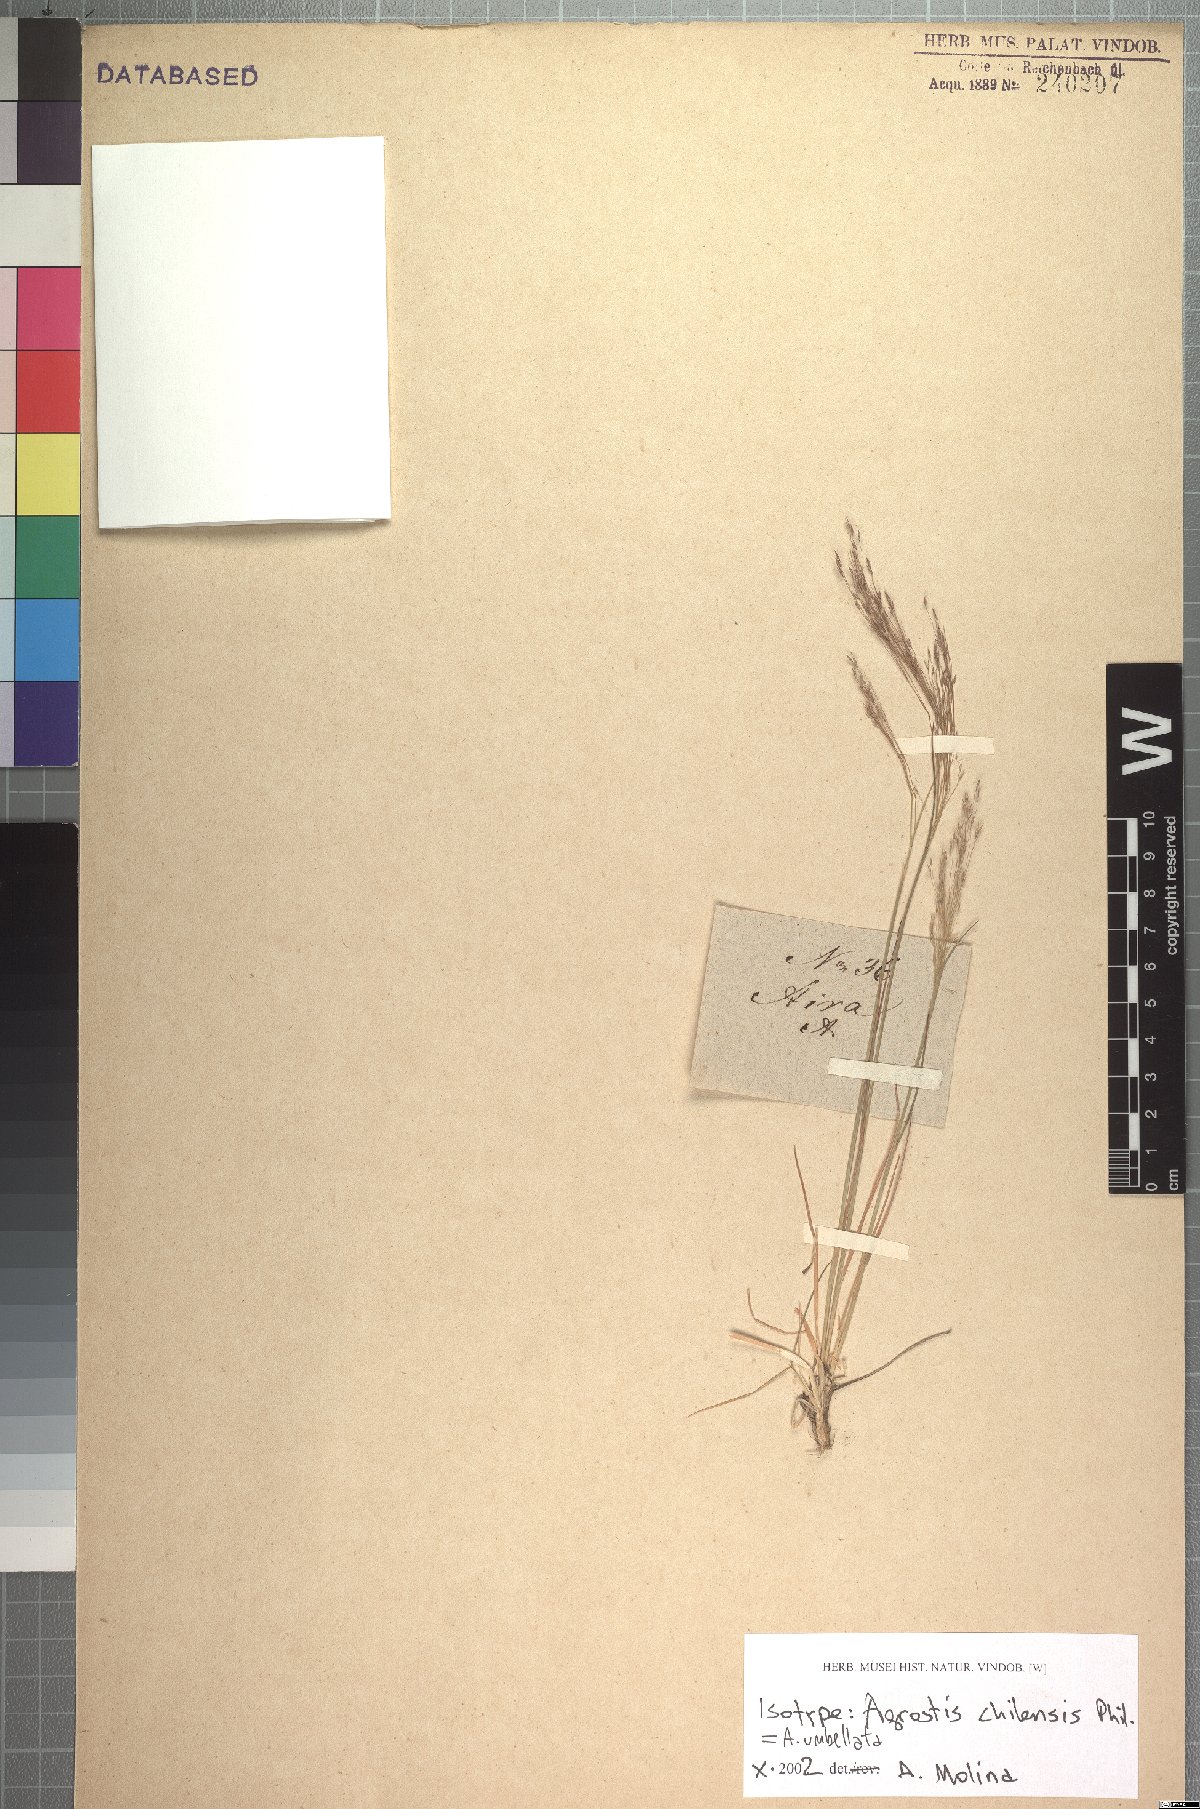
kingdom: Plantae
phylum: Tracheophyta
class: Liliopsida
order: Poales
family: Poaceae
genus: Agrostis
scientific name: Agrostis umbellata
